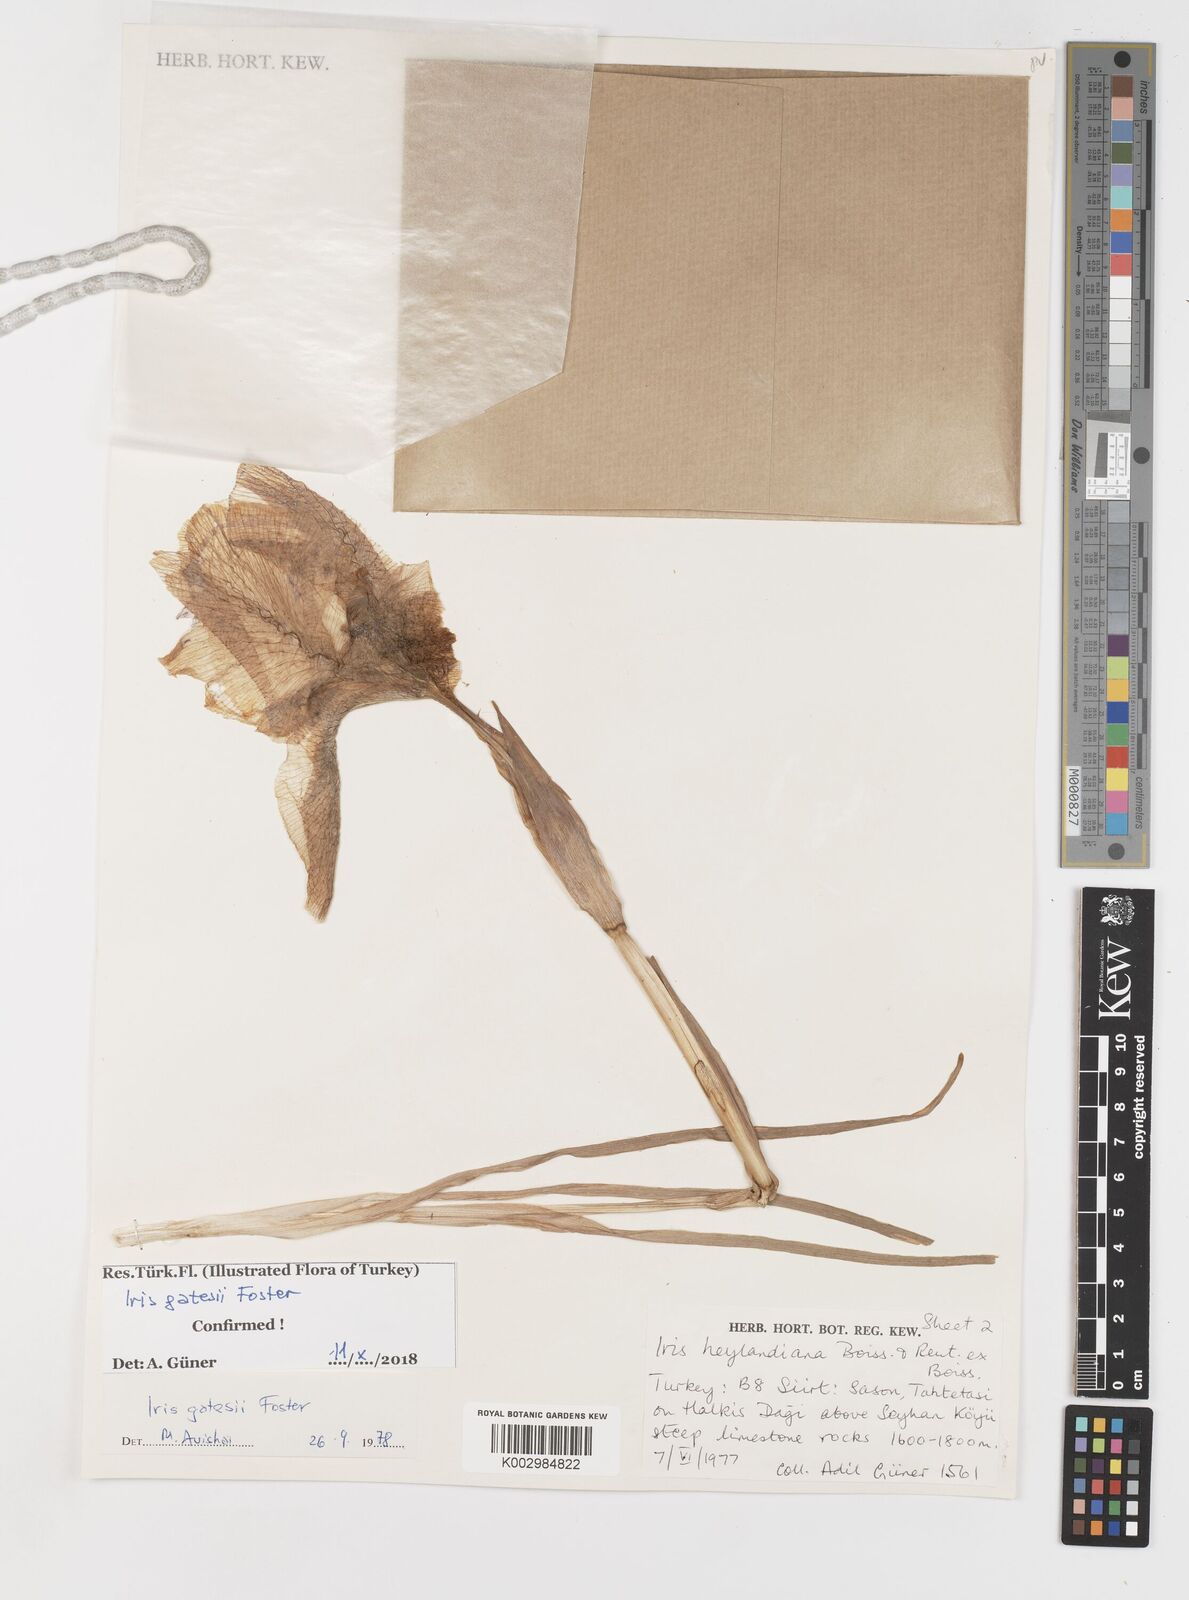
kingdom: Plantae
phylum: Tracheophyta
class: Liliopsida
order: Asparagales
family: Iridaceae
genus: Iris
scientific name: Iris gatesii
